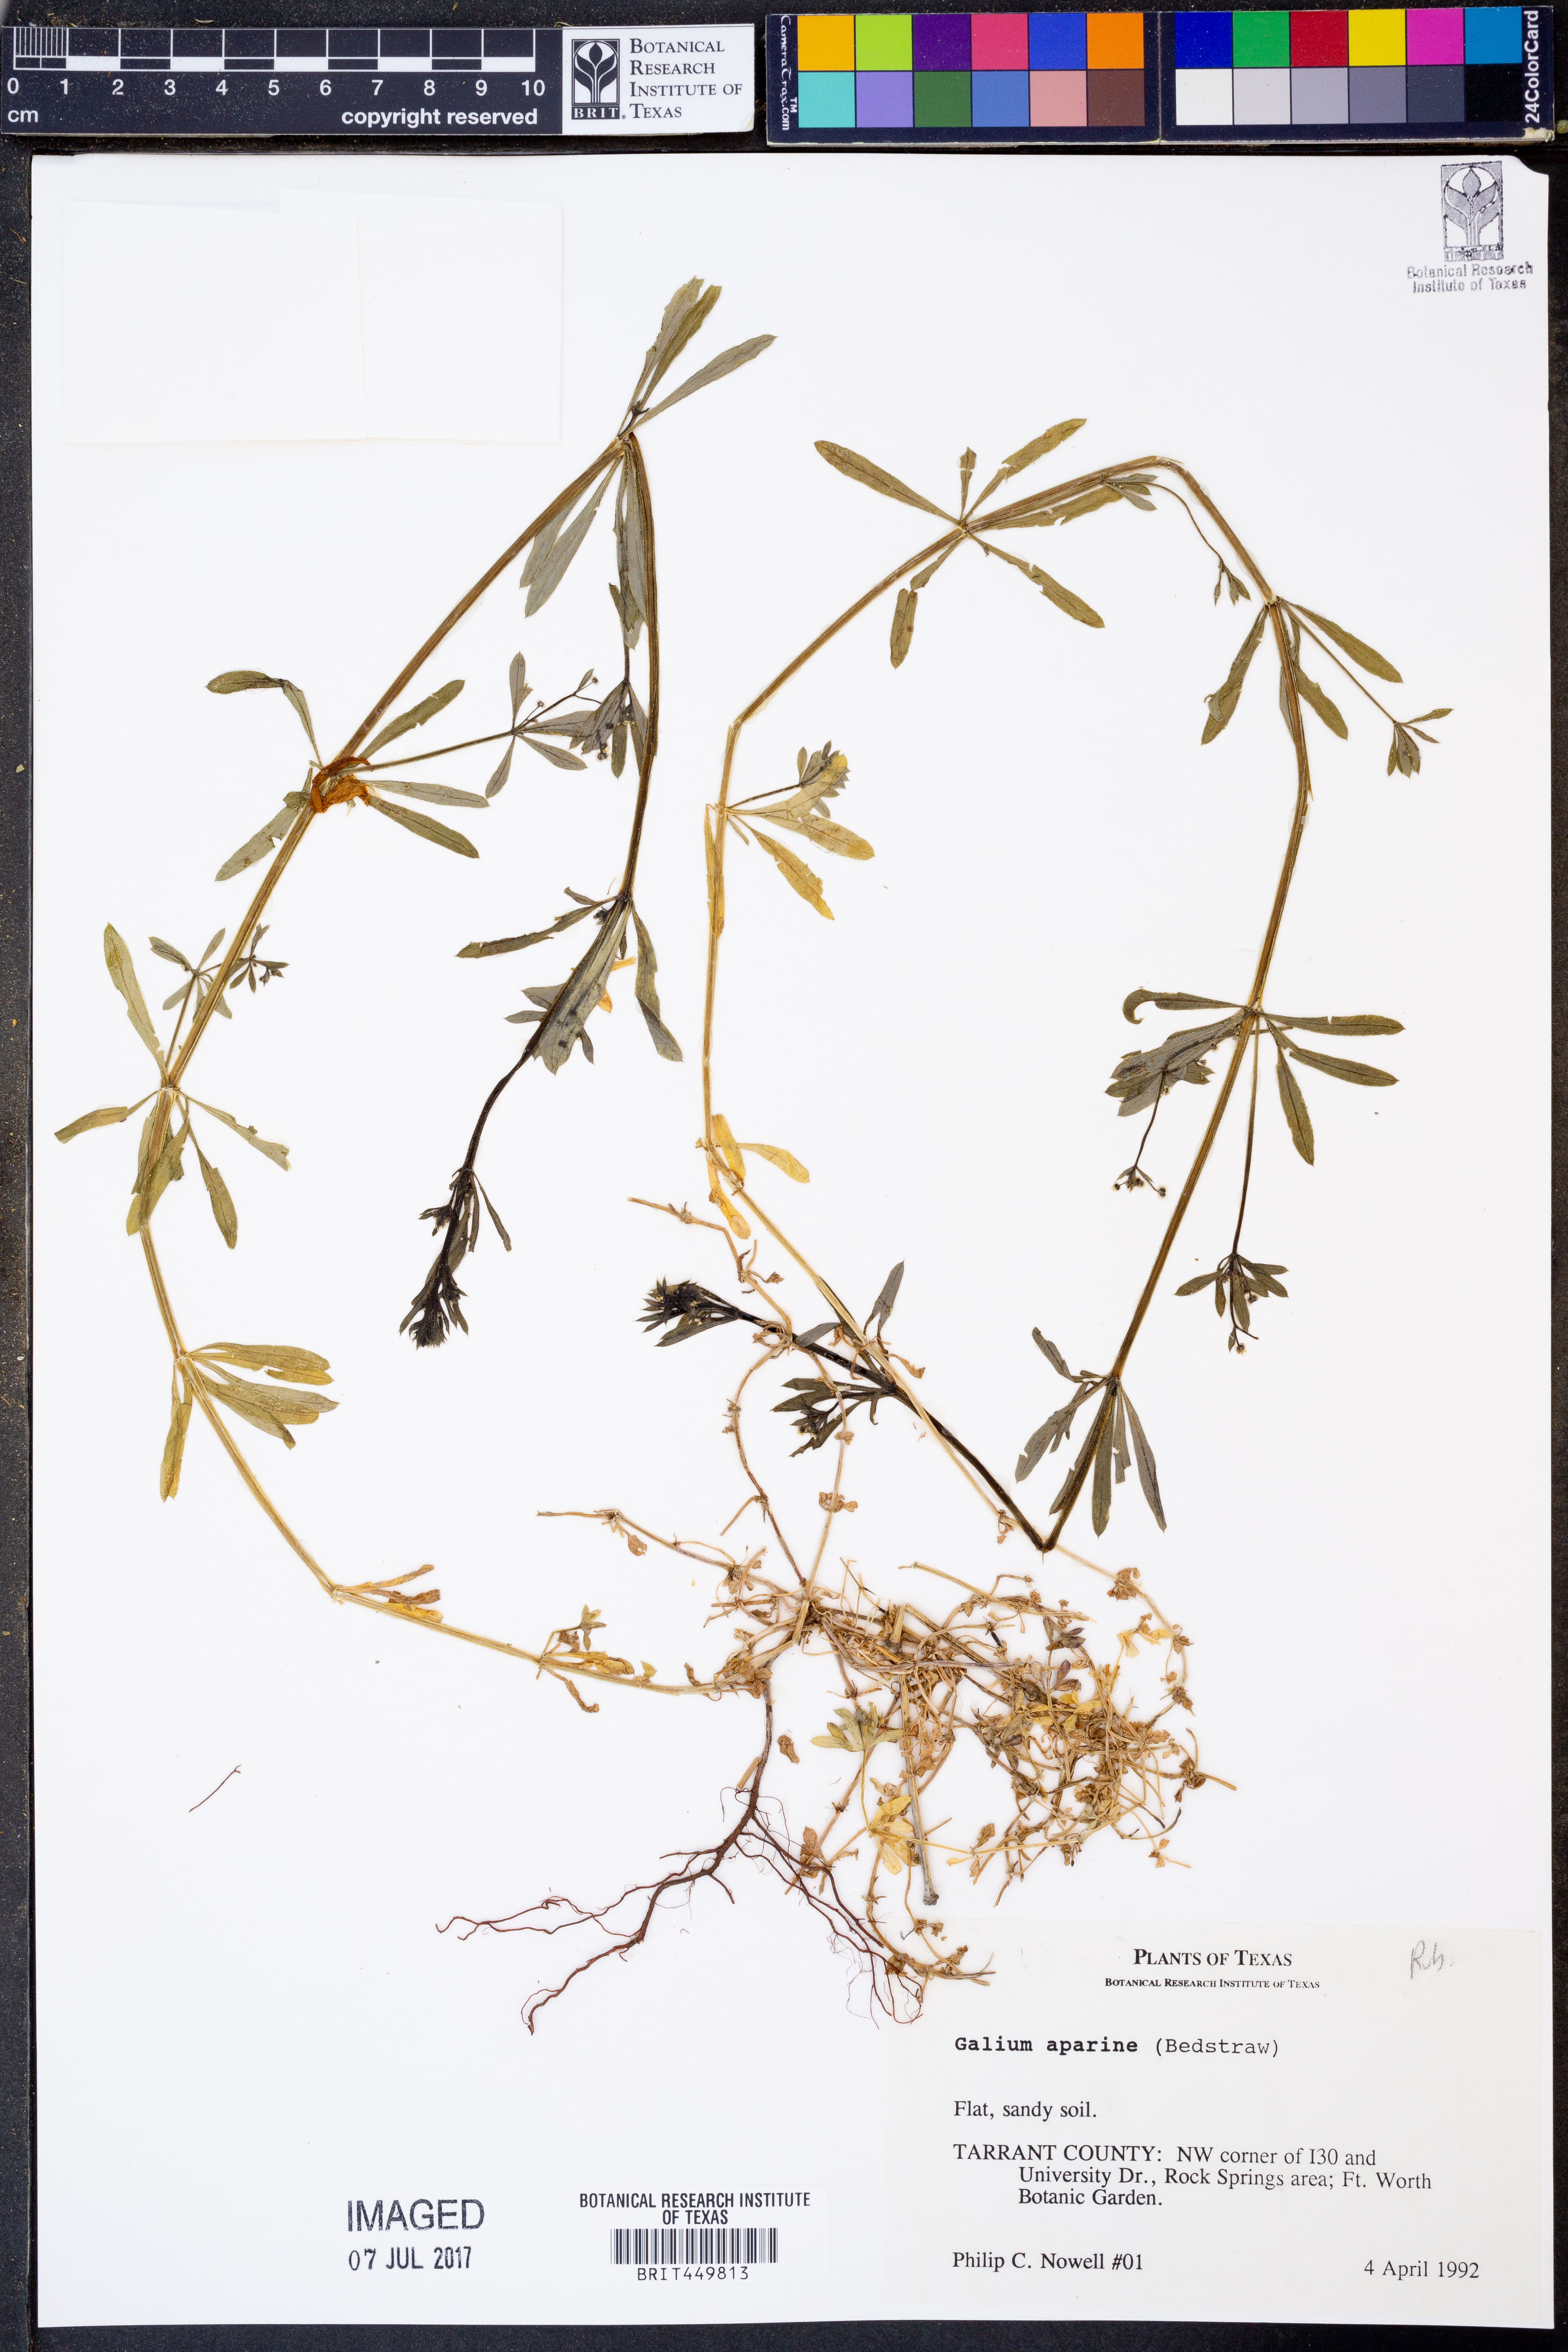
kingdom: Plantae
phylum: Tracheophyta
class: Magnoliopsida
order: Gentianales
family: Rubiaceae
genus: Galium
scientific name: Galium aparine
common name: Cleavers
